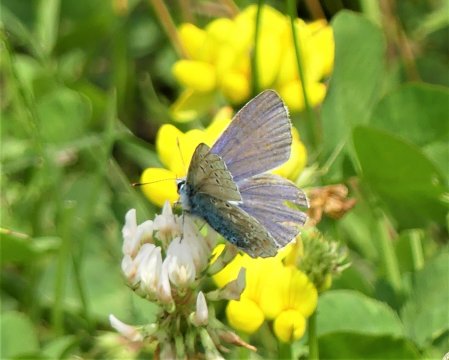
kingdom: Animalia
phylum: Arthropoda
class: Insecta
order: Lepidoptera
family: Lycaenidae
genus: Polyommatus
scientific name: Polyommatus icarus
